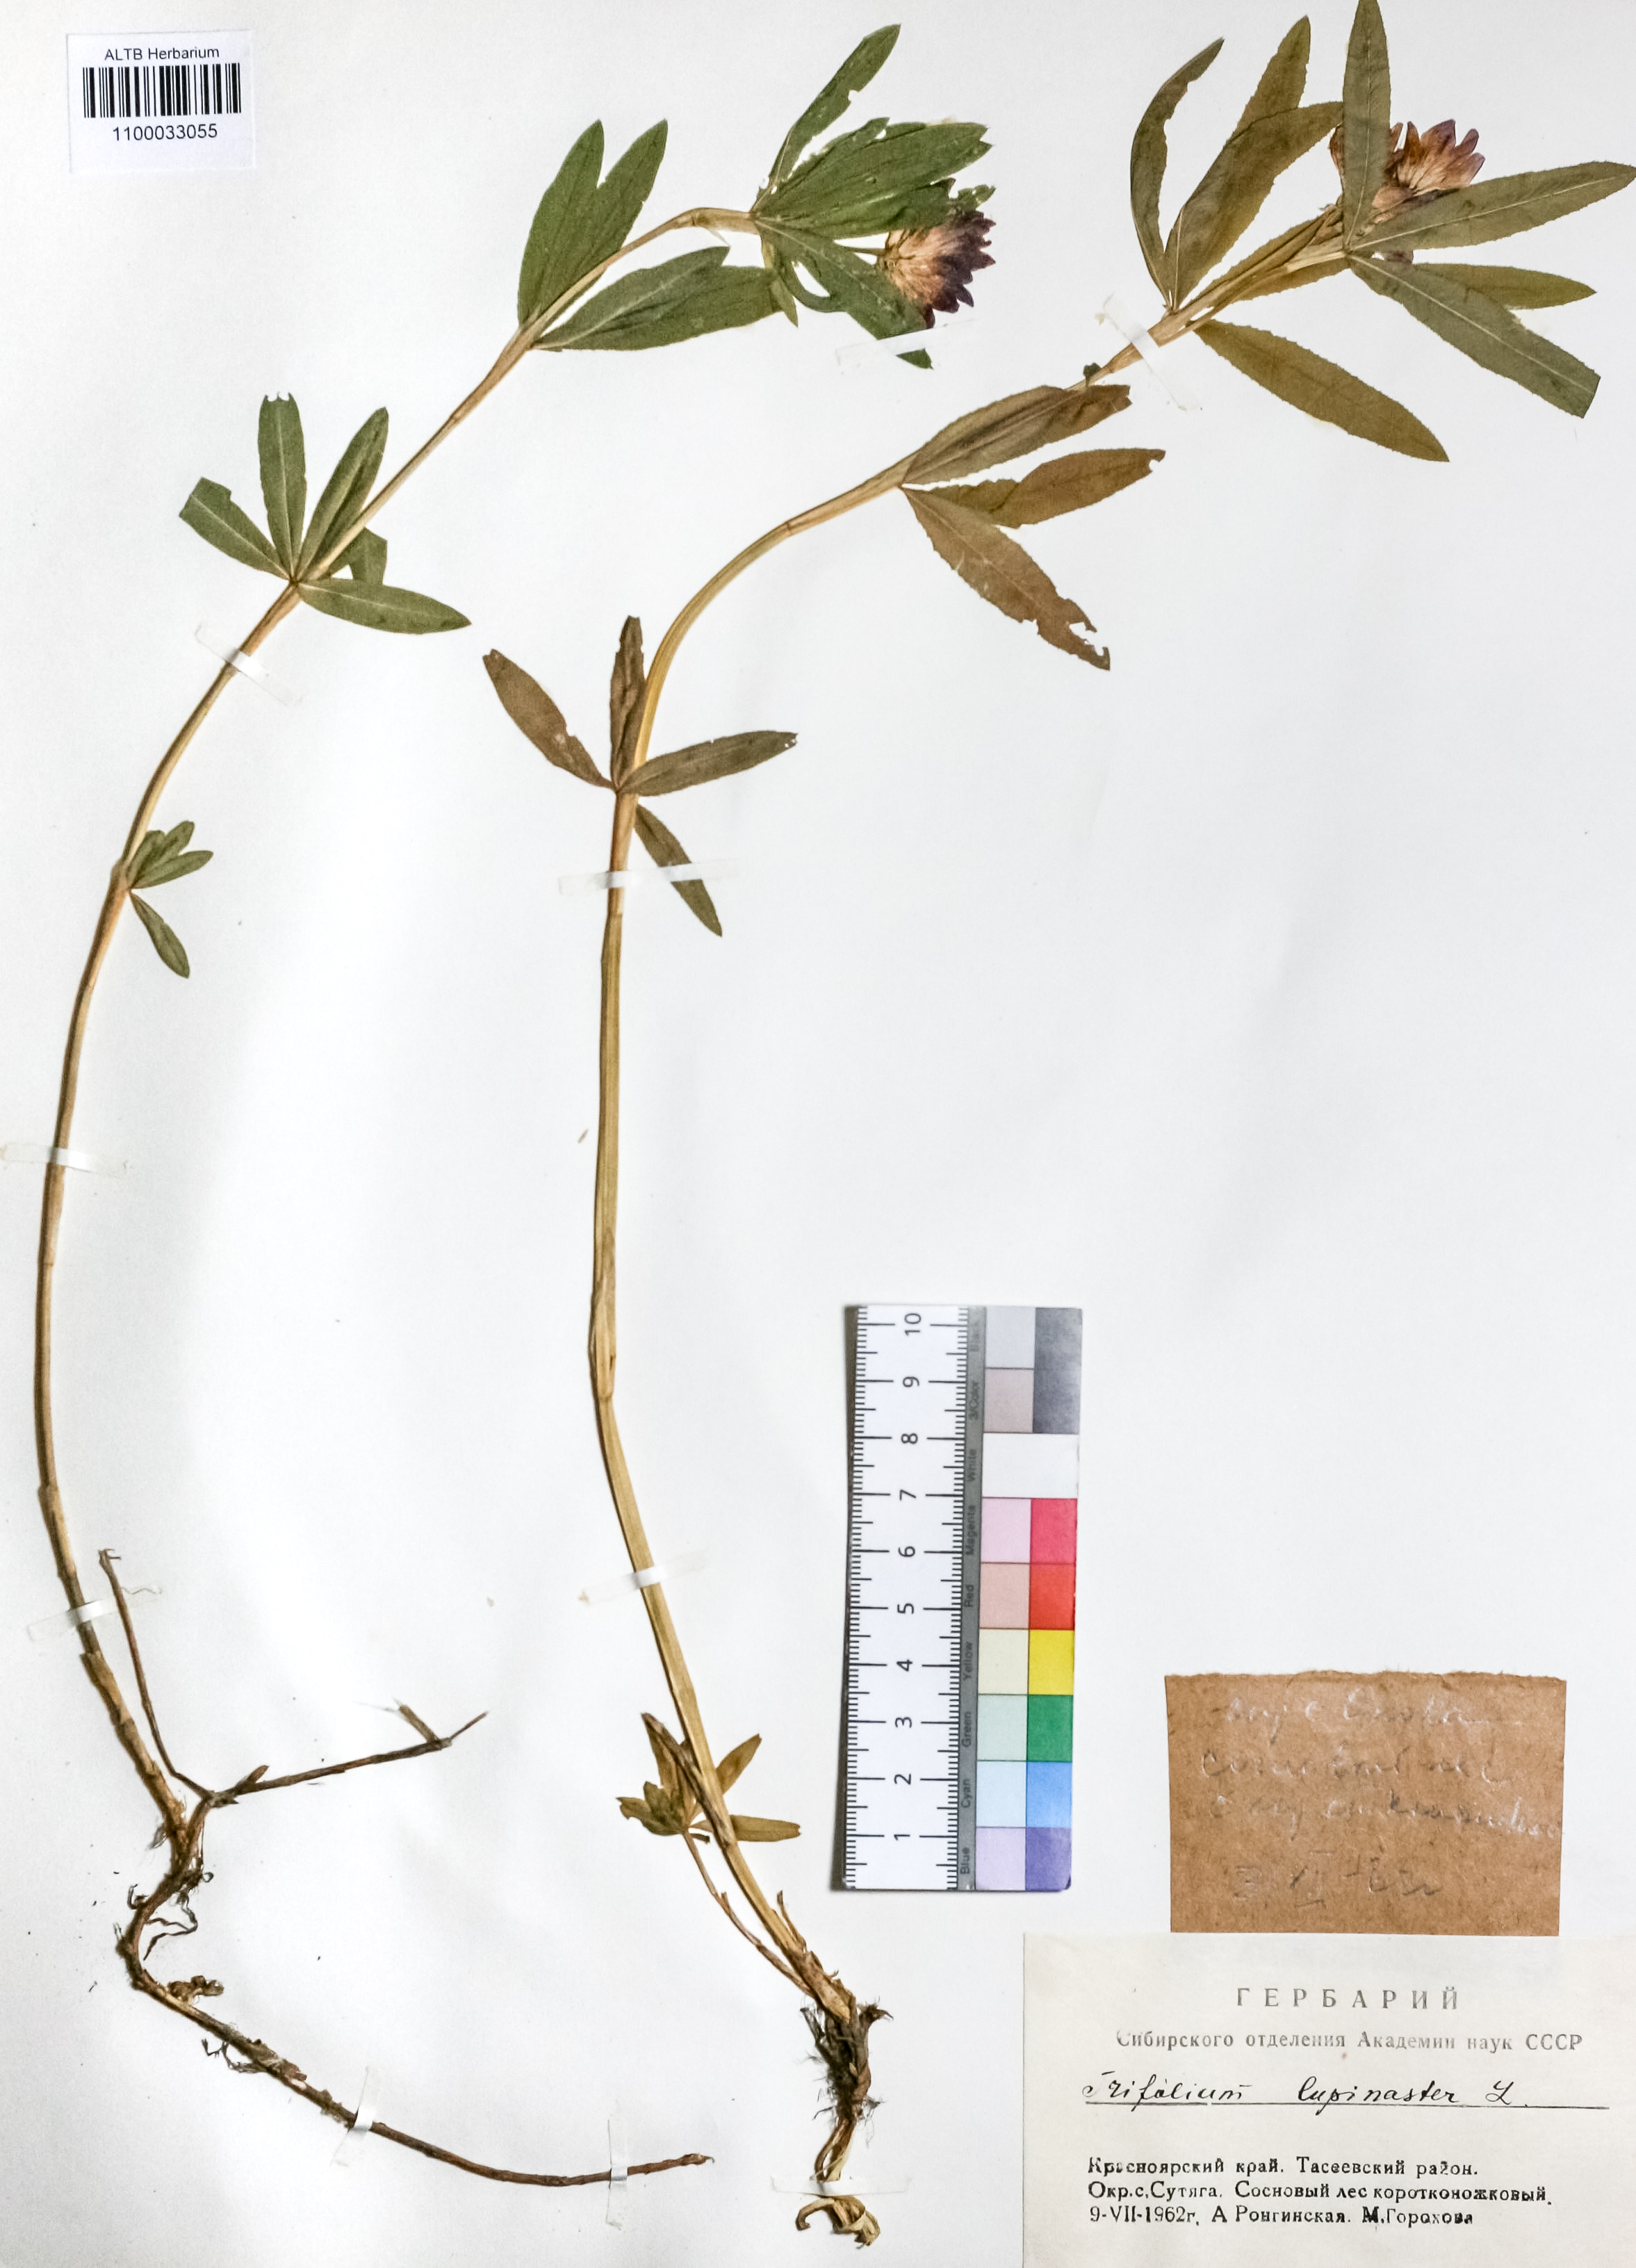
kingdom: Plantae
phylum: Tracheophyta
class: Magnoliopsida
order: Fabales
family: Fabaceae
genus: Trifolium
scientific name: Trifolium lupinaster
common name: Lupine clover
